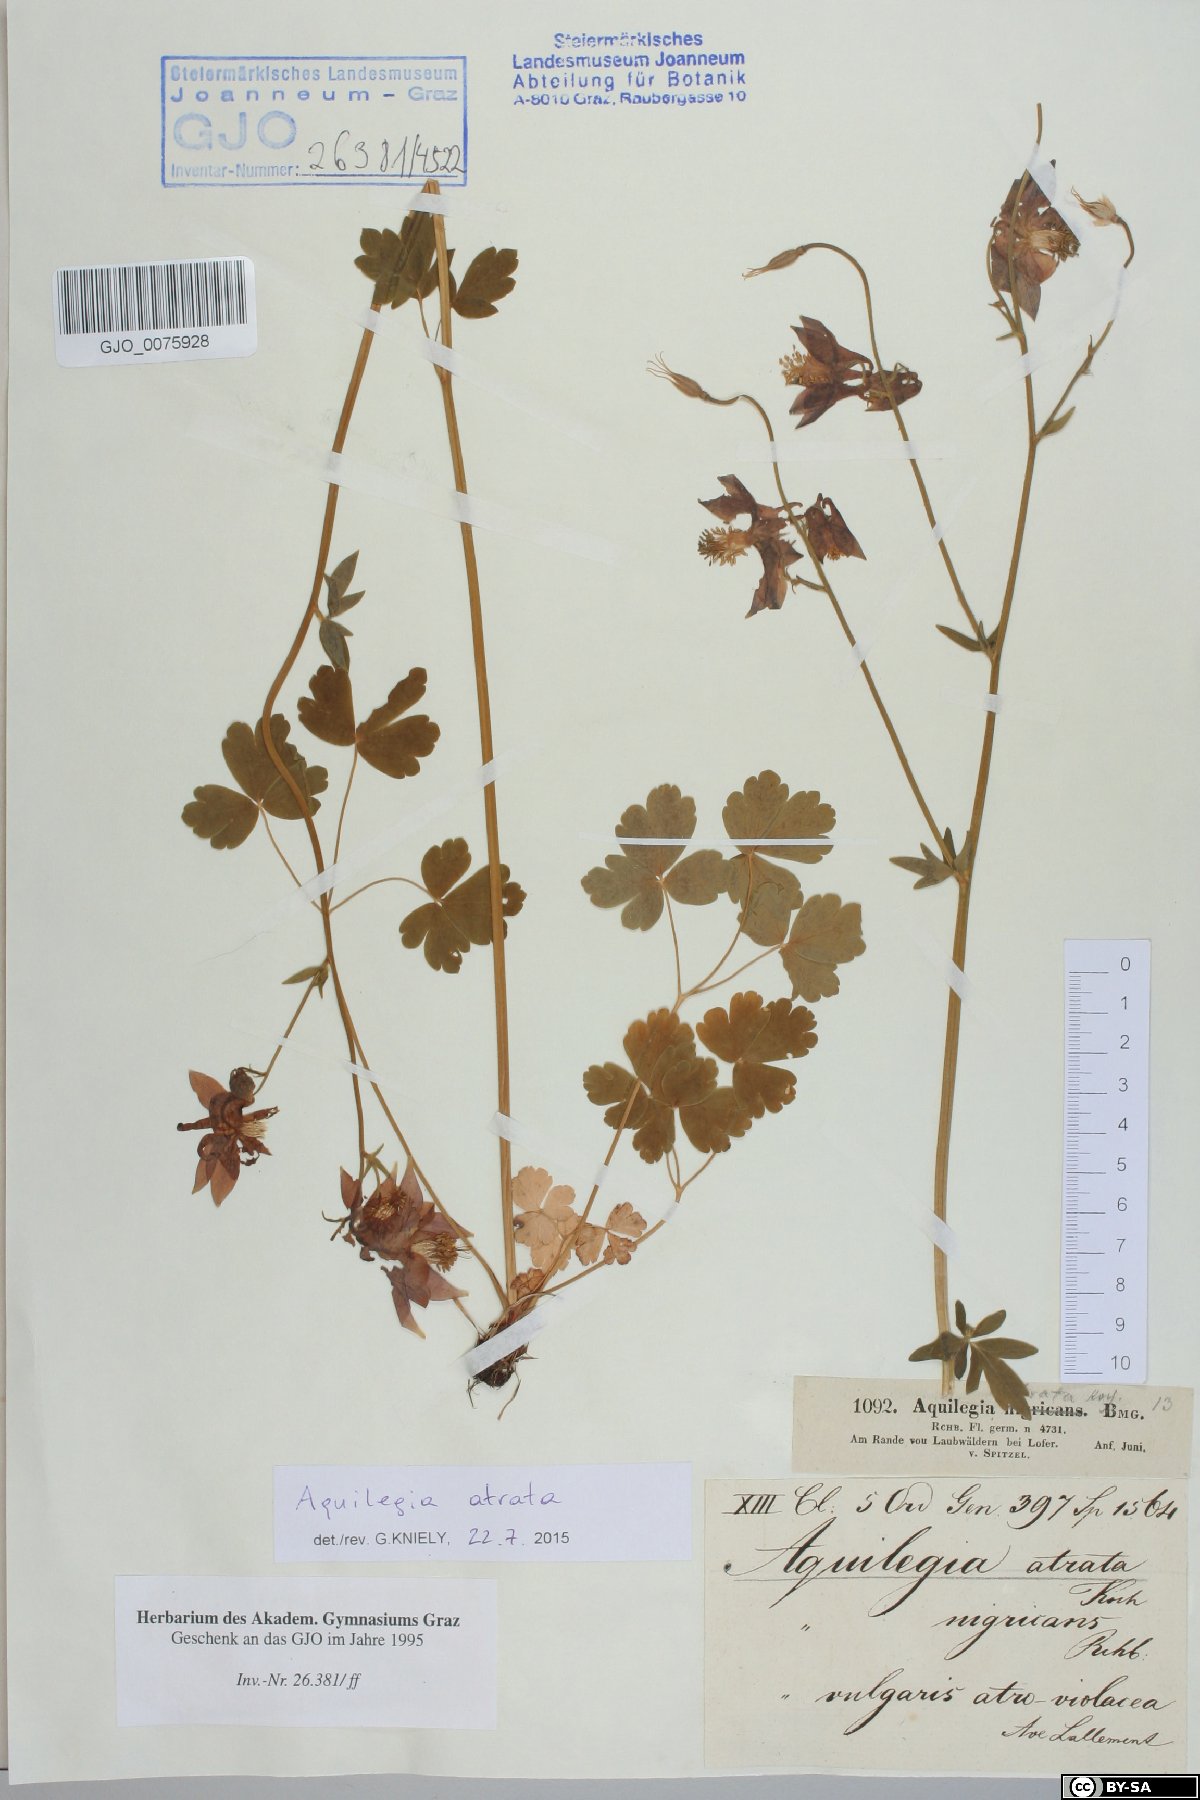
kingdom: Plantae
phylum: Tracheophyta
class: Magnoliopsida
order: Ranunculales
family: Ranunculaceae
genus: Aquilegia
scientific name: Aquilegia atrata
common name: Dark columbine
